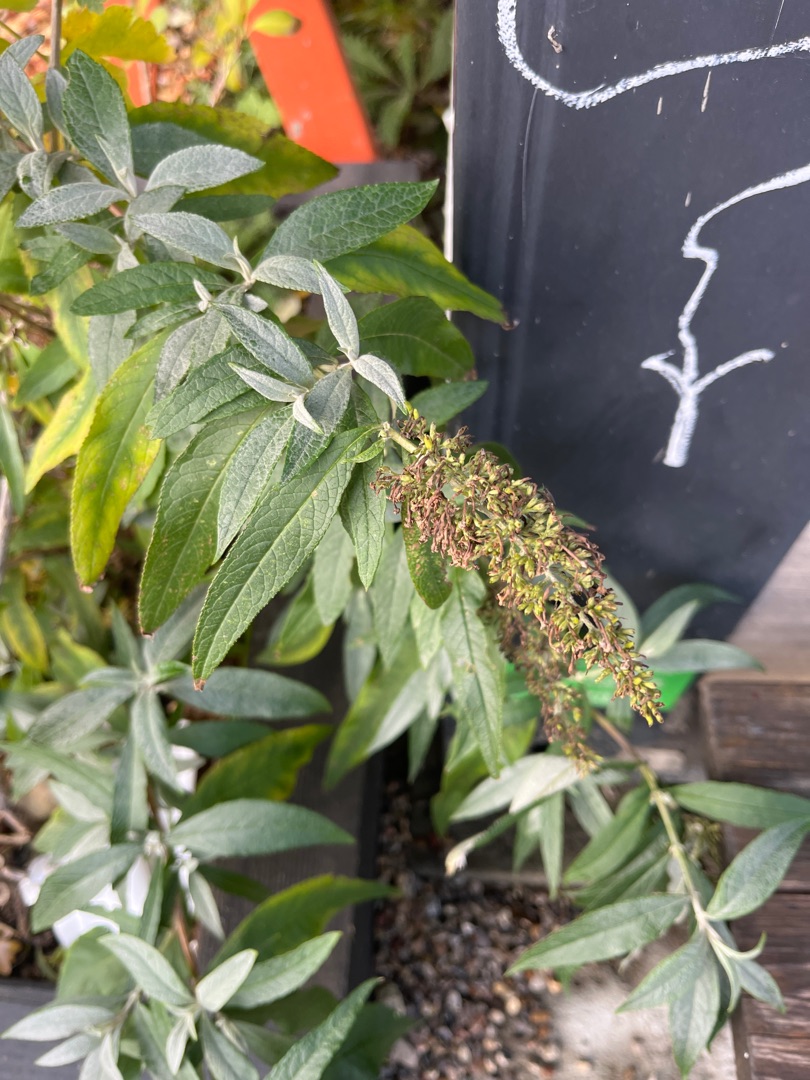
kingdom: Plantae
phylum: Tracheophyta
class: Magnoliopsida
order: Lamiales
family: Scrophulariaceae
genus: Buddleja
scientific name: Buddleja davidii
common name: Sommerfuglebusk
